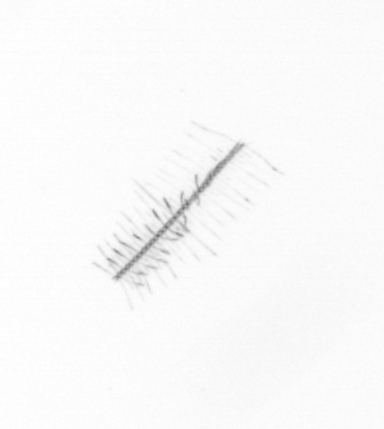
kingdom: Chromista
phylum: Ochrophyta
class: Bacillariophyceae
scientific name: Bacillariophyceae
